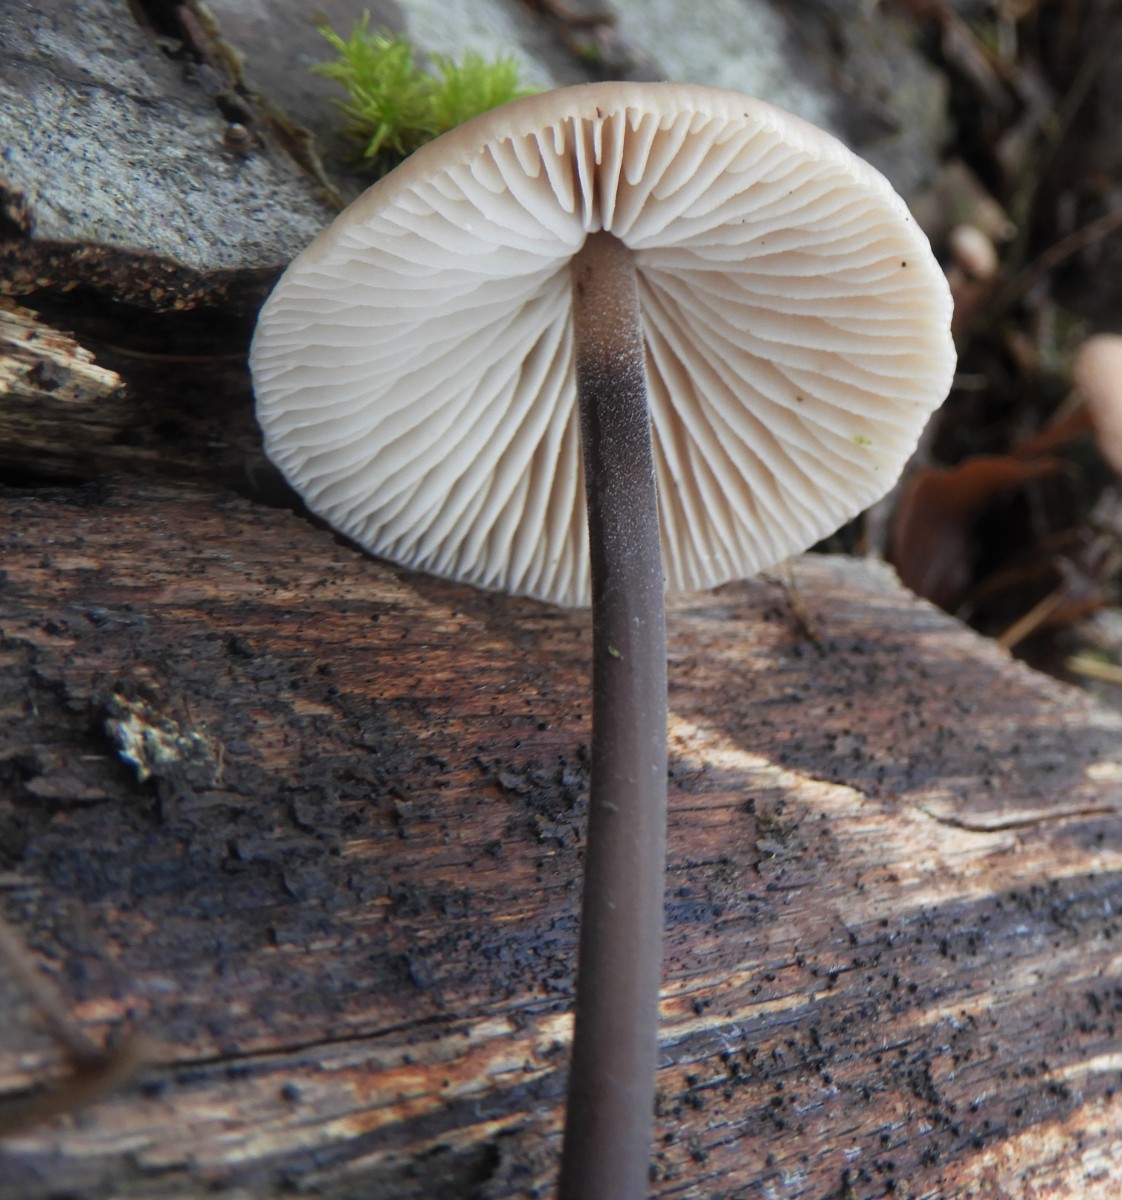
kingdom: Fungi
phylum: Basidiomycota
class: Agaricomycetes
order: Agaricales
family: Omphalotaceae
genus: Mycetinis
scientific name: Mycetinis alliaceus
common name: stor løghat
